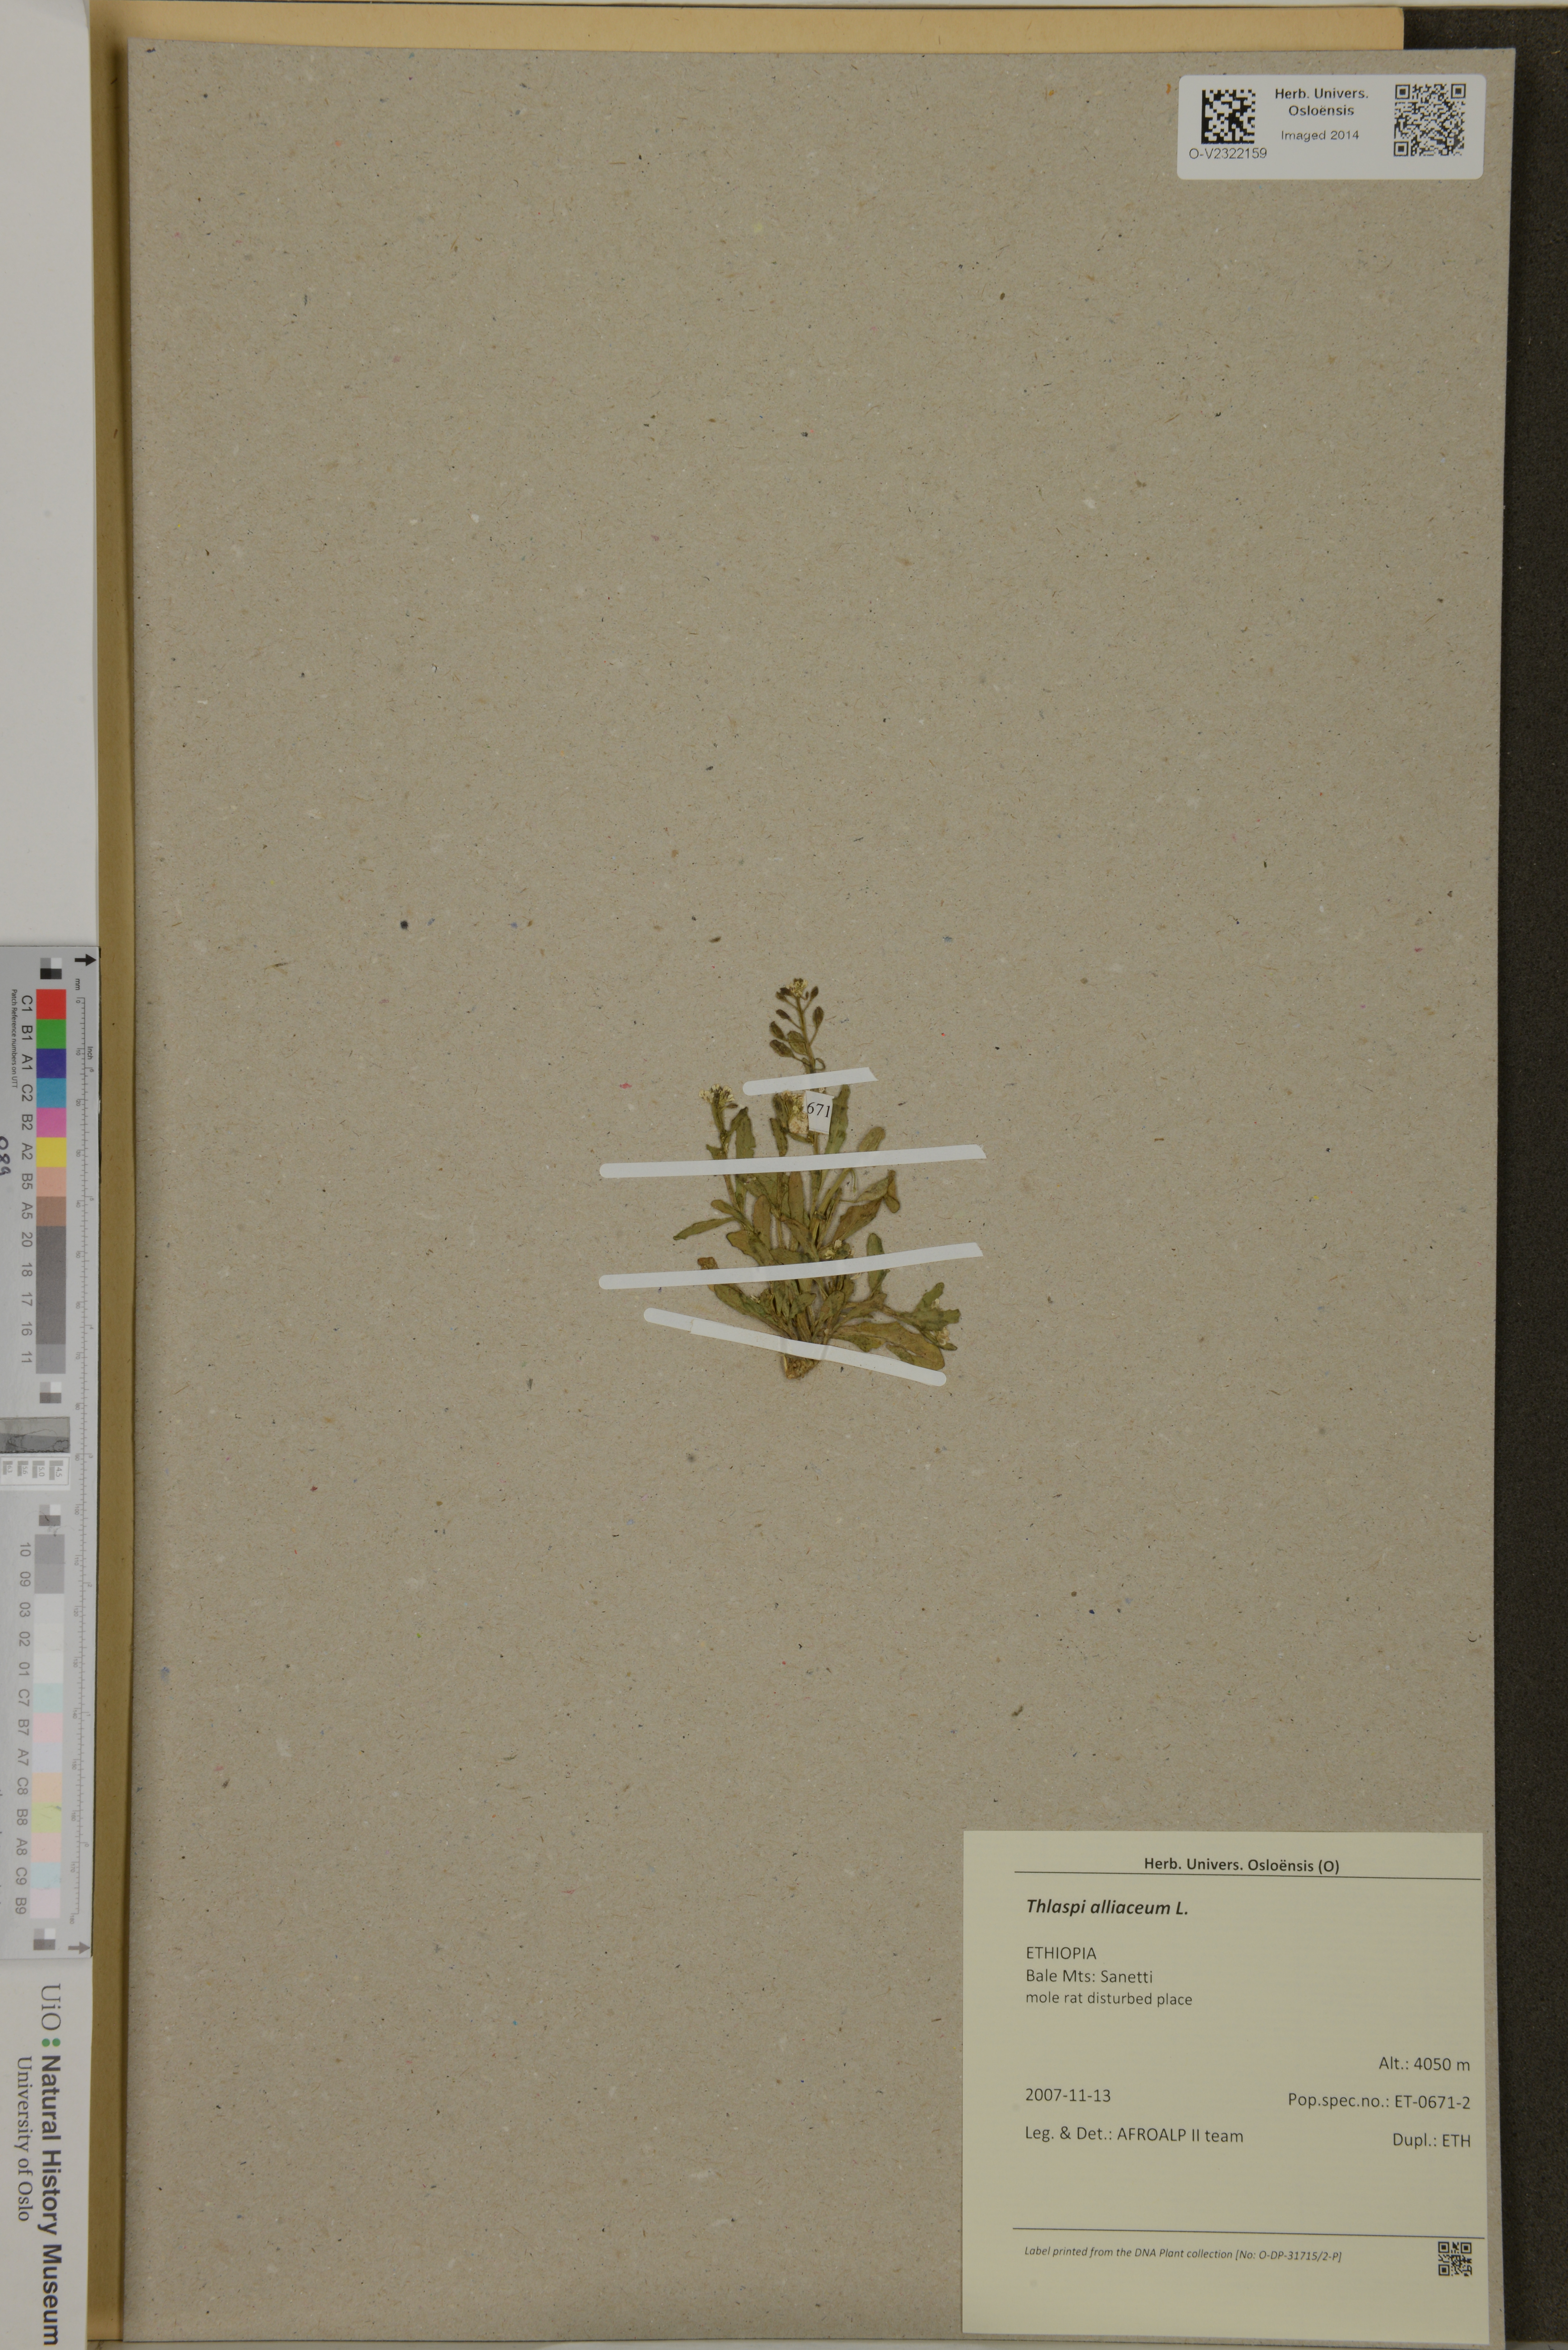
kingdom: Plantae
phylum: Tracheophyta
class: Magnoliopsida
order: Brassicales
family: Brassicaceae
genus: Mummenhoffia
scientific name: Mummenhoffia alliacea
